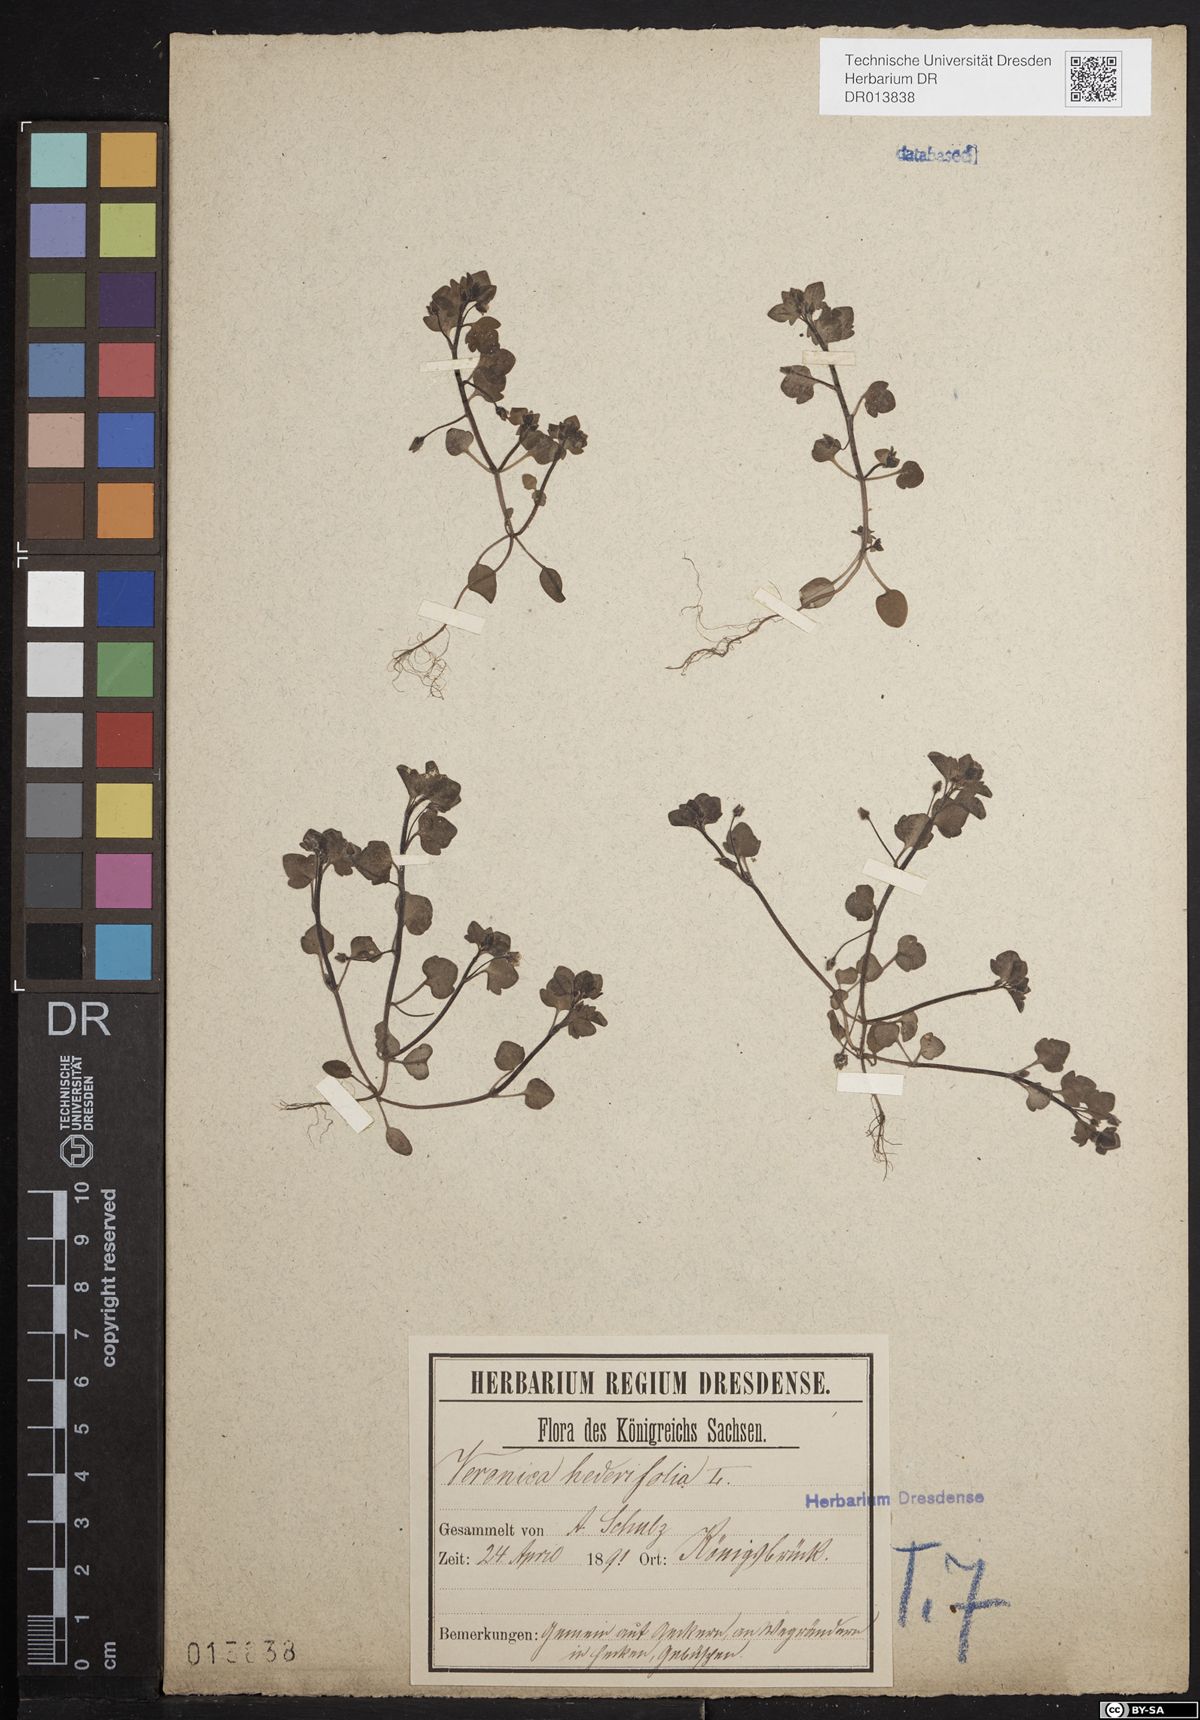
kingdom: Plantae
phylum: Tracheophyta
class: Magnoliopsida
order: Lamiales
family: Plantaginaceae
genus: Veronica
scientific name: Veronica hederifolia
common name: Ivy-leaved speedwell
